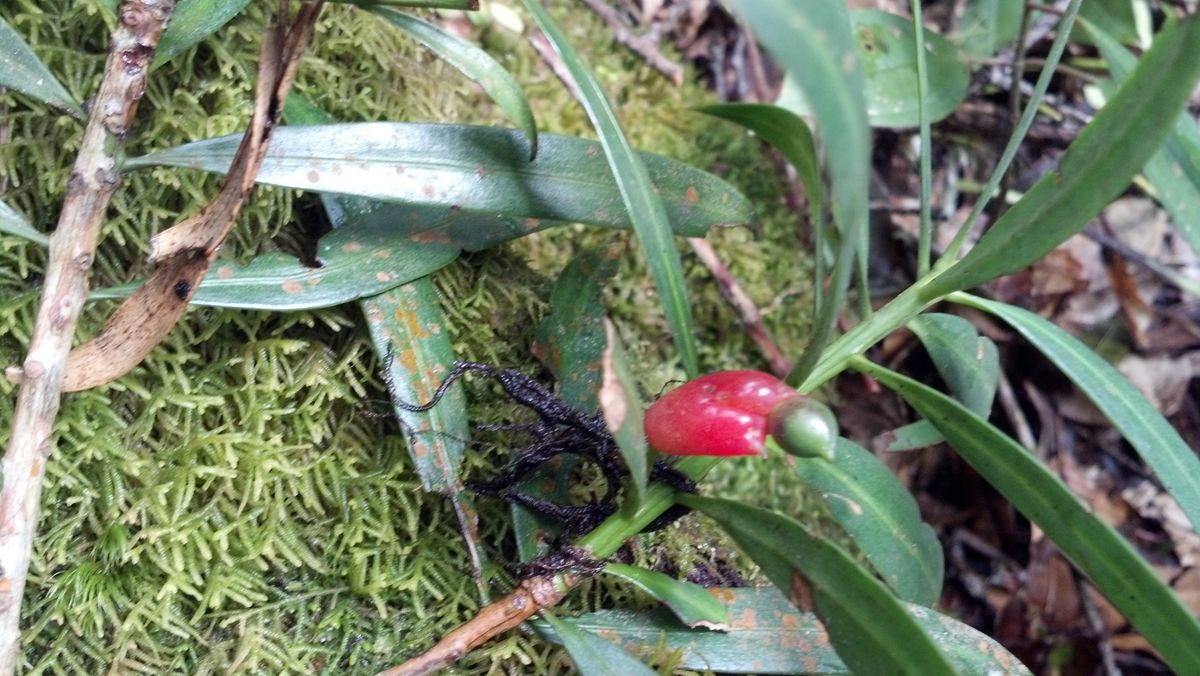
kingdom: Plantae
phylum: Tracheophyta
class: Pinopsida
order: Pinales
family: Podocarpaceae
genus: Podocarpus
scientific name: Podocarpus oleifolius
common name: Olive-leaf podoberry
